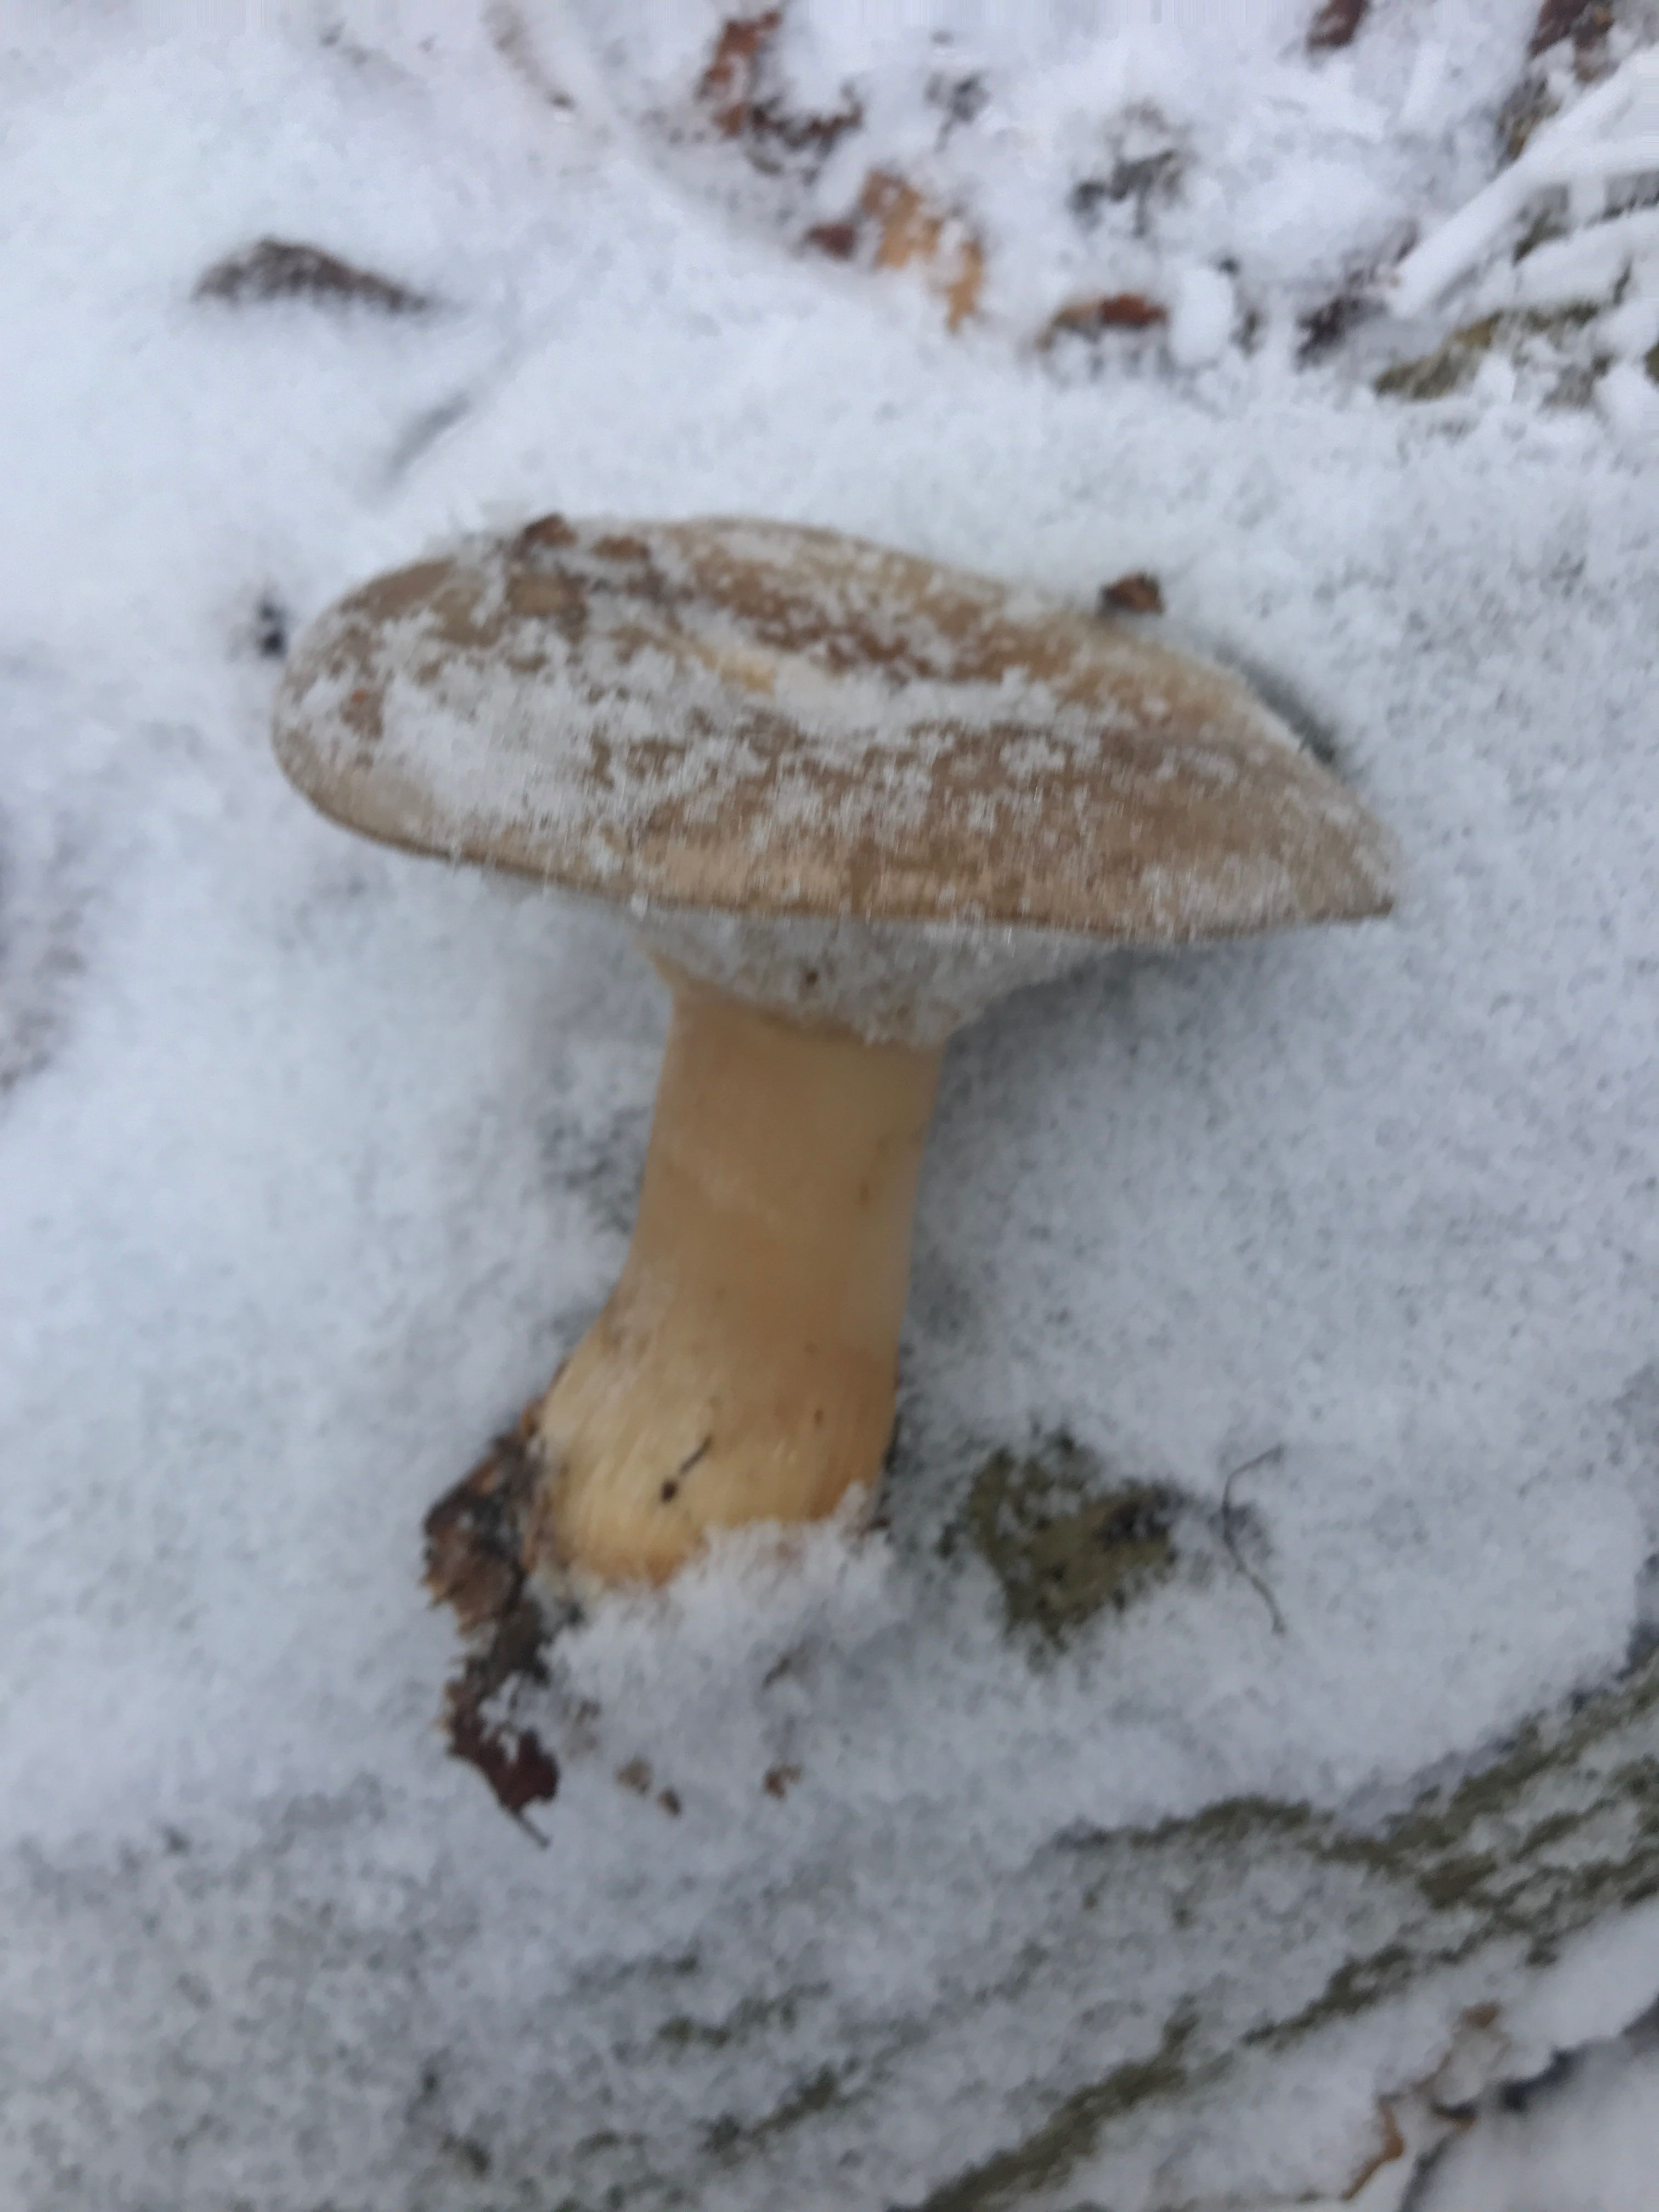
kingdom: Fungi
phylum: Basidiomycota
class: Agaricomycetes
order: Agaricales
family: Tricholomataceae
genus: Infundibulicybe
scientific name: Infundibulicybe geotropa
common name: stor tragthat
